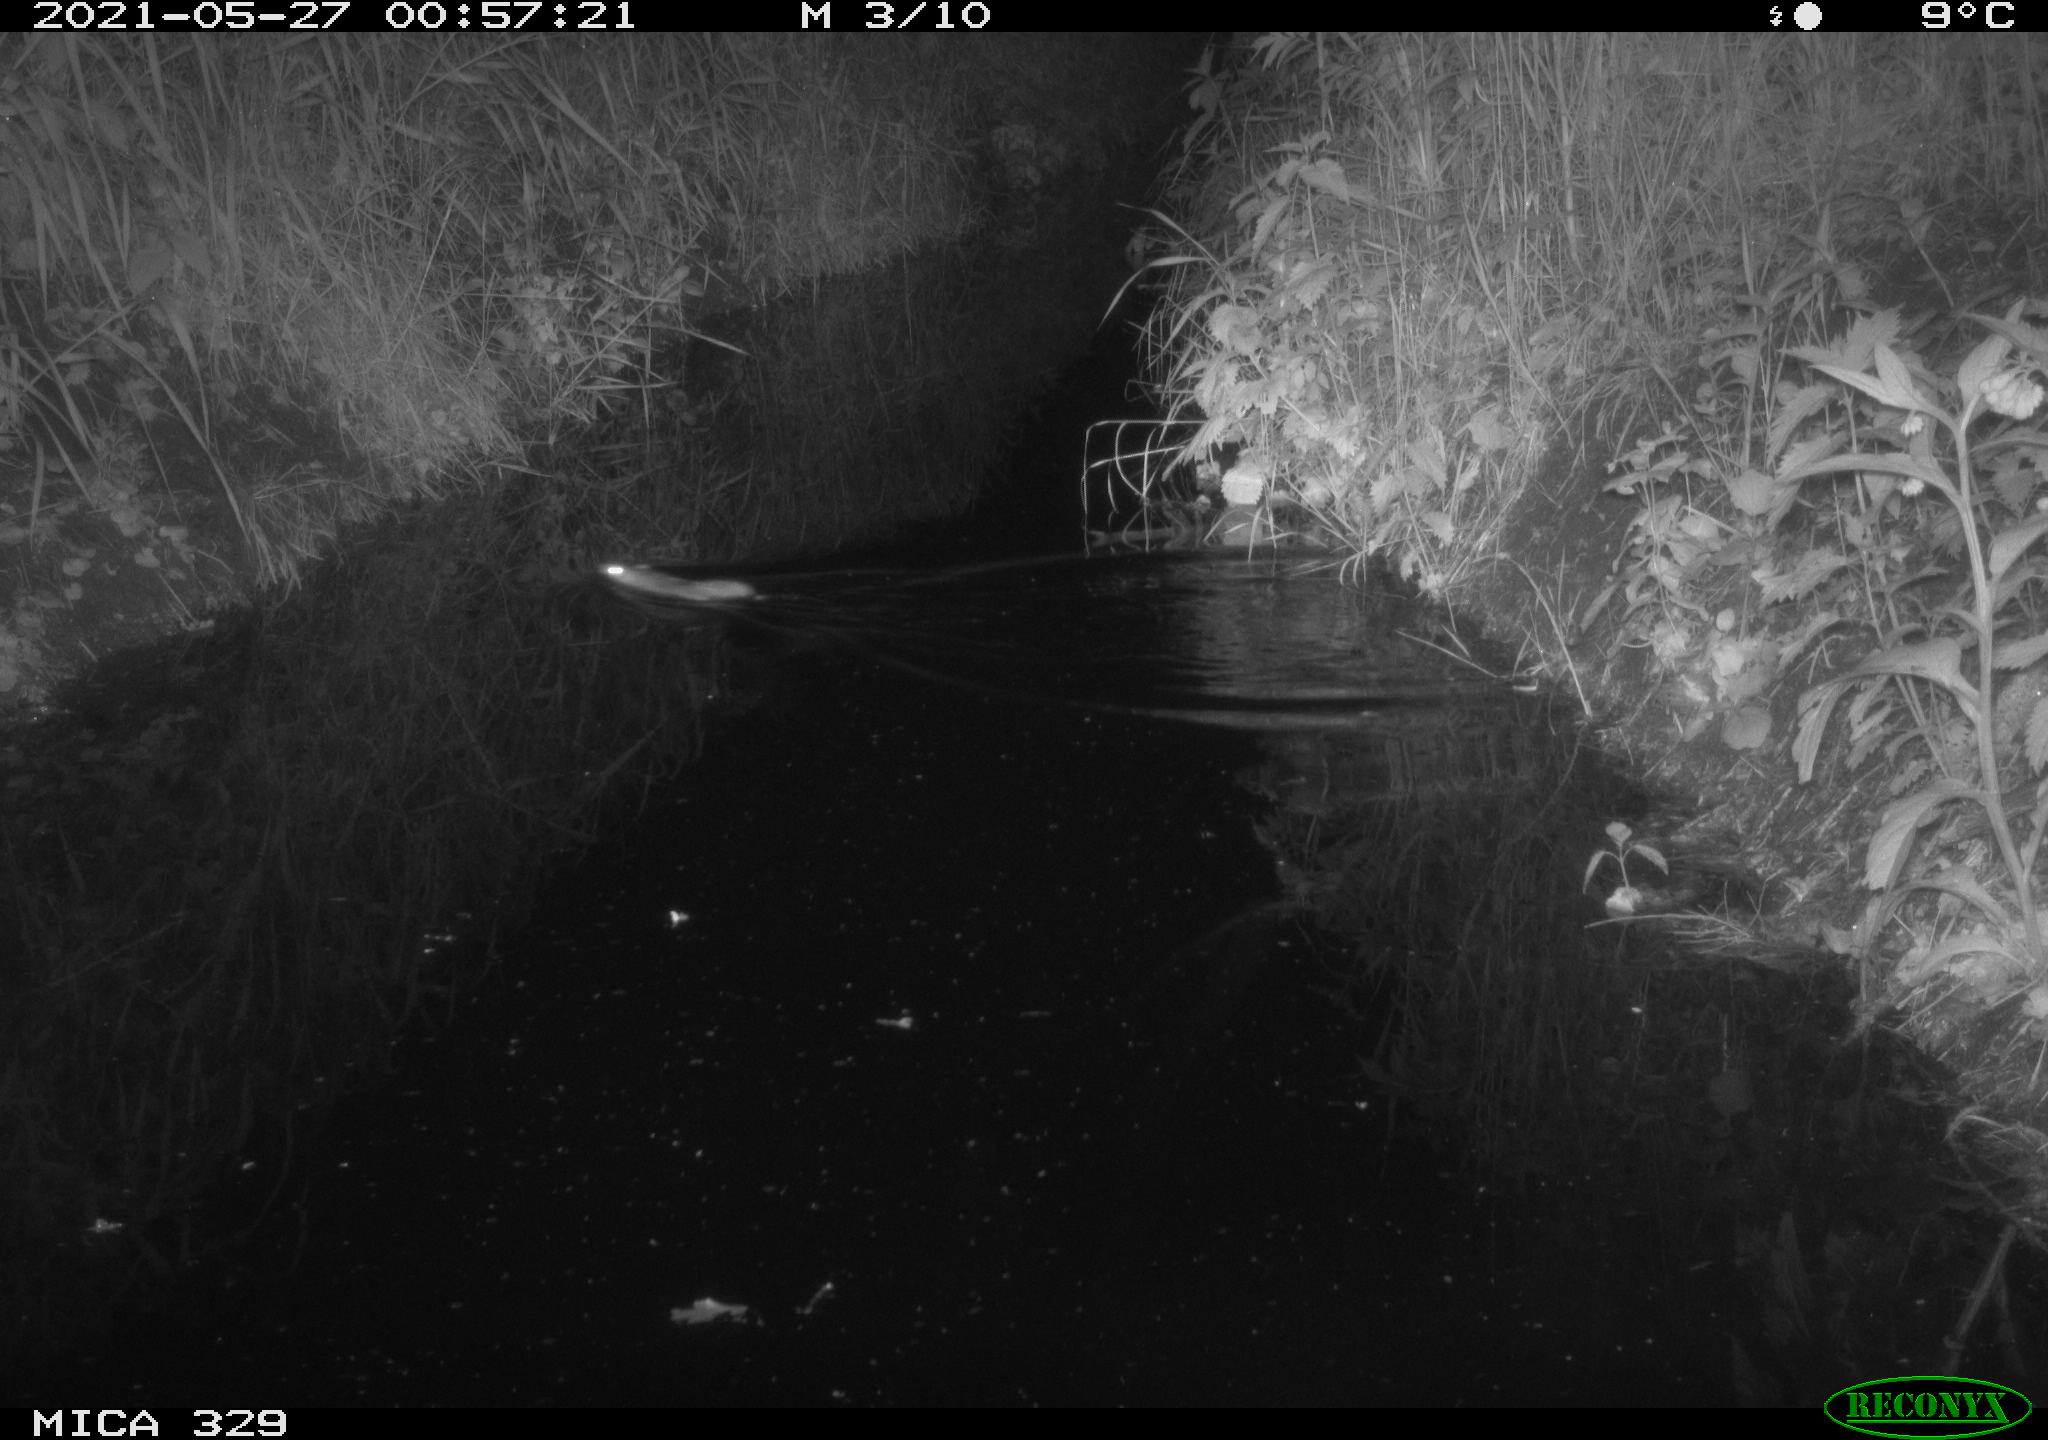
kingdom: Animalia
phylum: Chordata
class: Mammalia
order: Rodentia
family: Muridae
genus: Rattus
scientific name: Rattus norvegicus
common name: Brown rat
